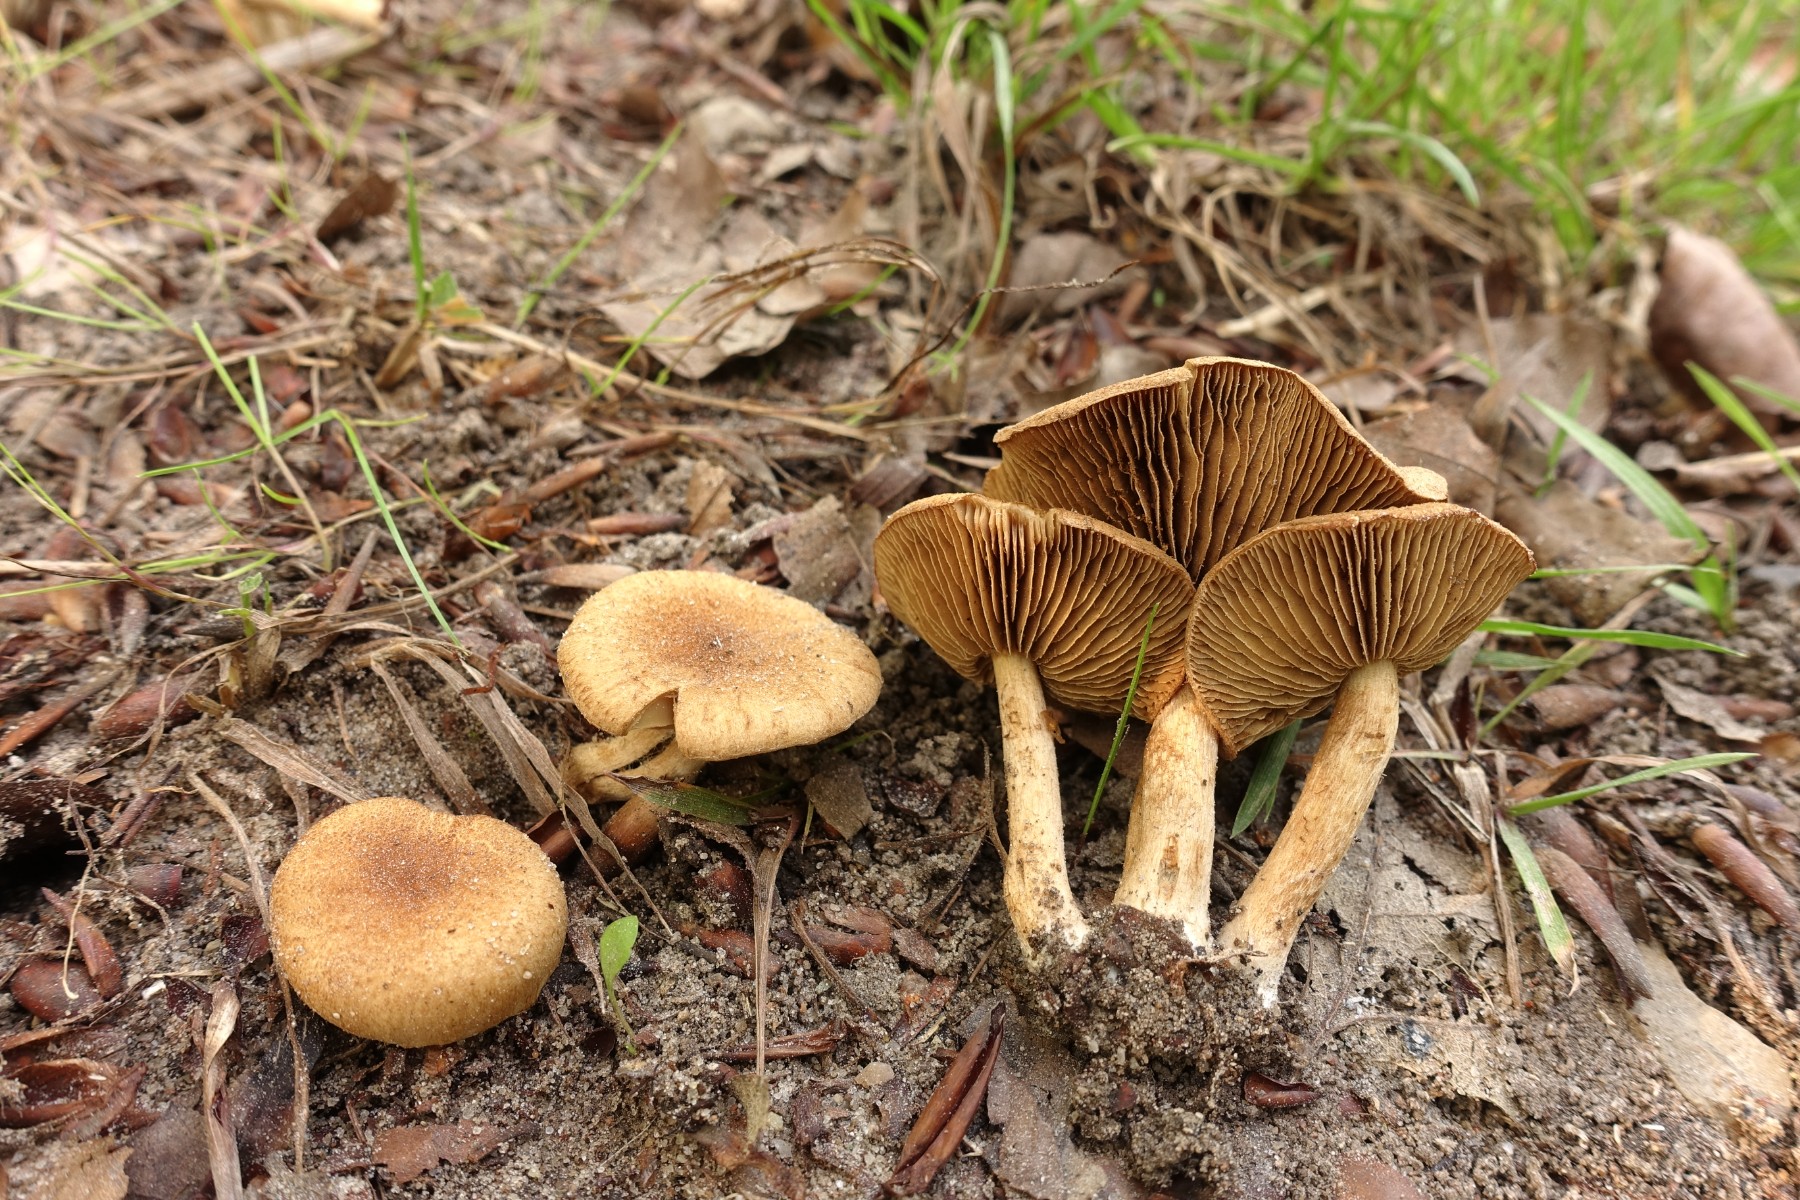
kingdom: Fungi
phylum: Basidiomycota
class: Agaricomycetes
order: Agaricales
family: Inocybaceae
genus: Inocybe
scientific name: Inocybe dulcamara
